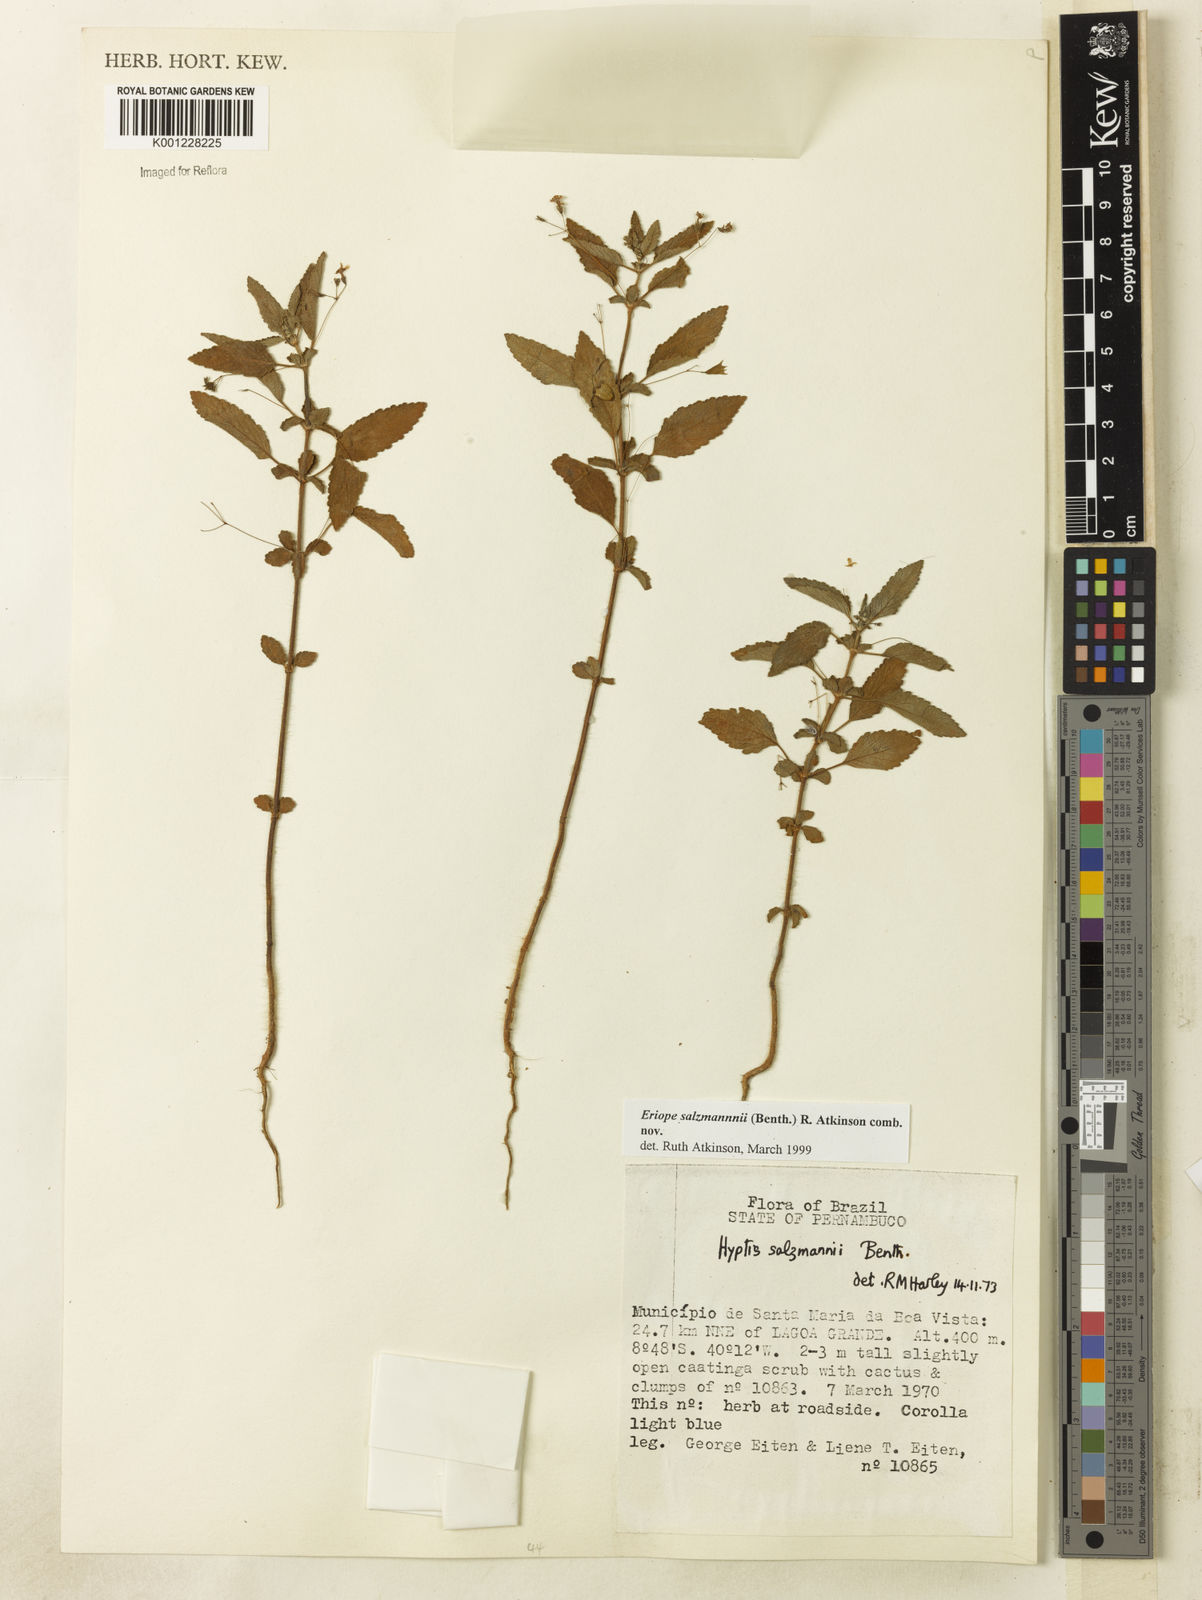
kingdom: Plantae
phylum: Tracheophyta
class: Magnoliopsida
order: Lamiales
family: Lamiaceae
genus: Hypenia
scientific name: Hypenia salzmannii
